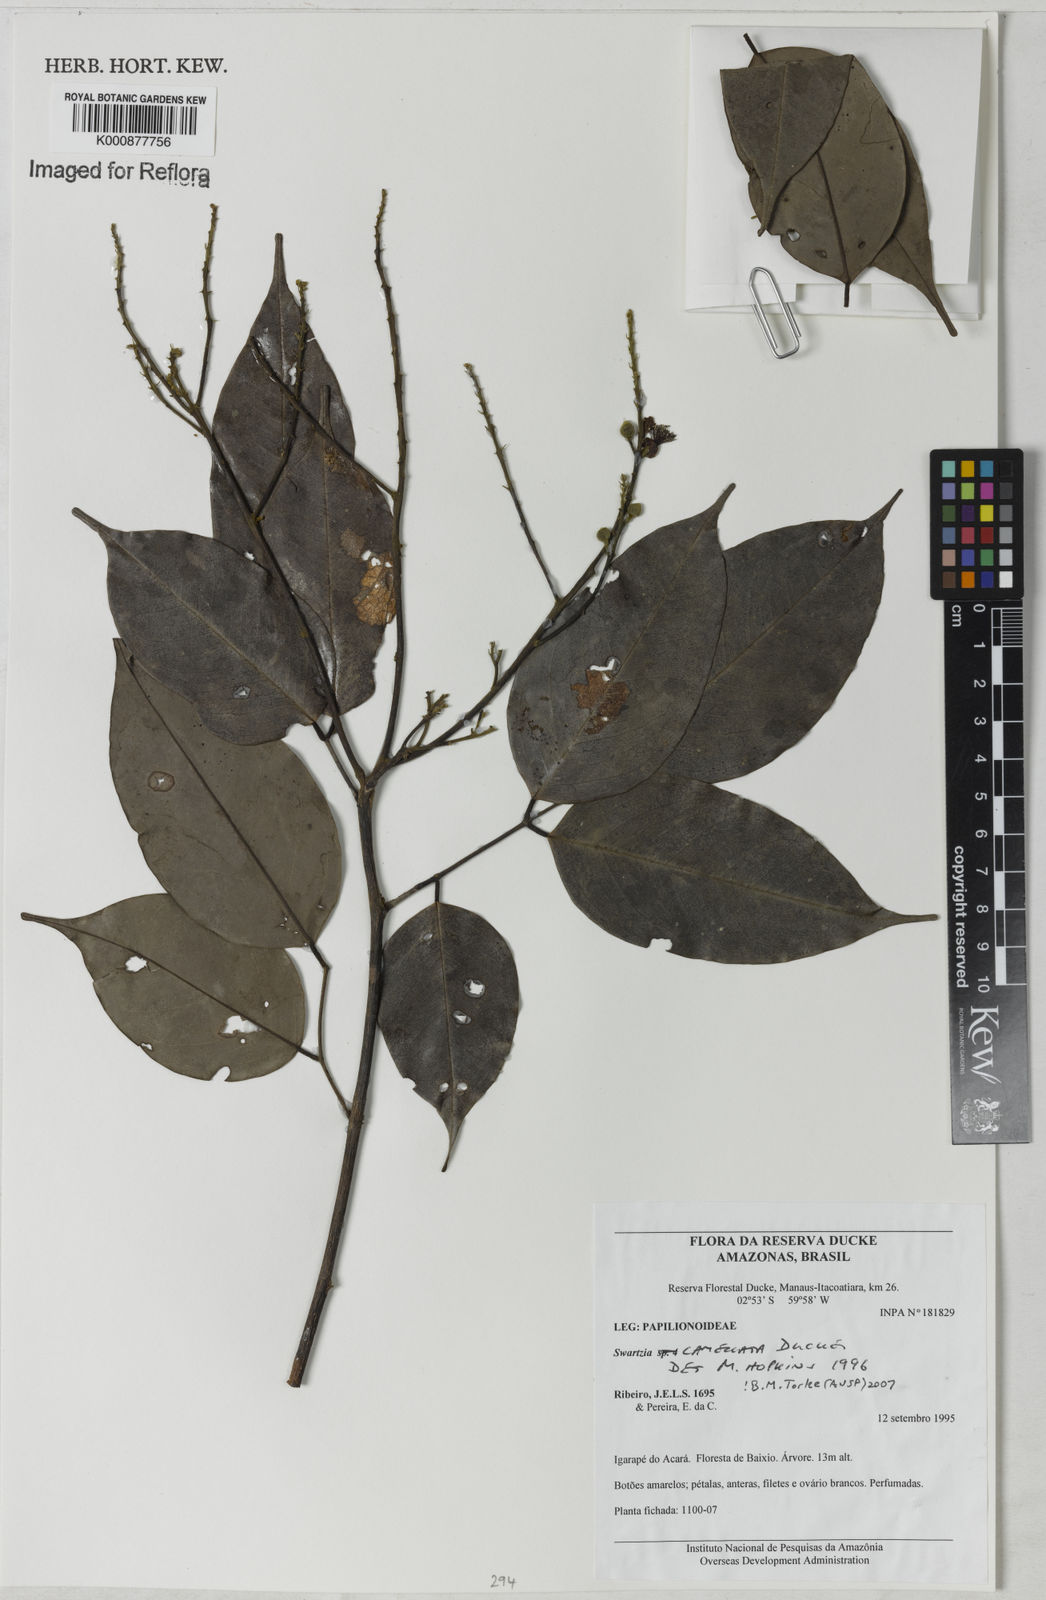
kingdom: Plantae
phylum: Tracheophyta
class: Magnoliopsida
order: Fabales
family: Fabaceae
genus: Swartzia
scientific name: Swartzia lamellata
